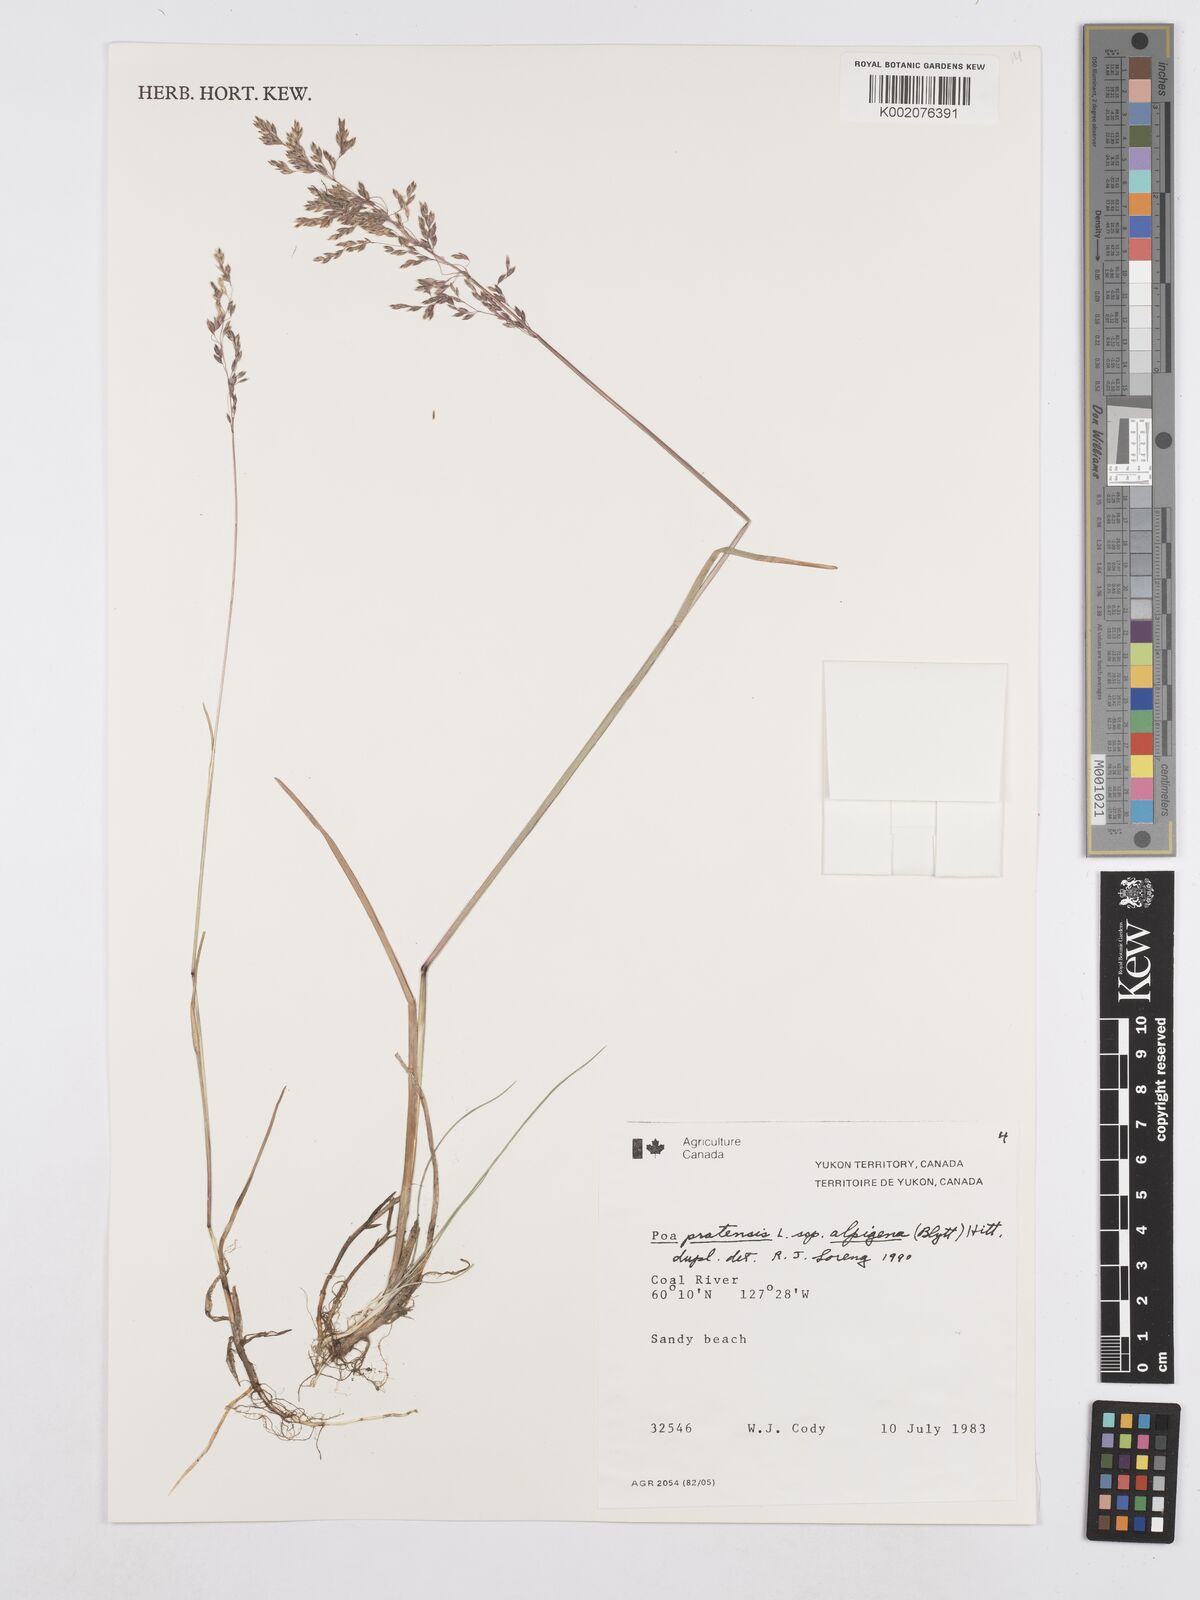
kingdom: Plantae
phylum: Tracheophyta
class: Liliopsida
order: Poales
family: Poaceae
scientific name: Poaceae
